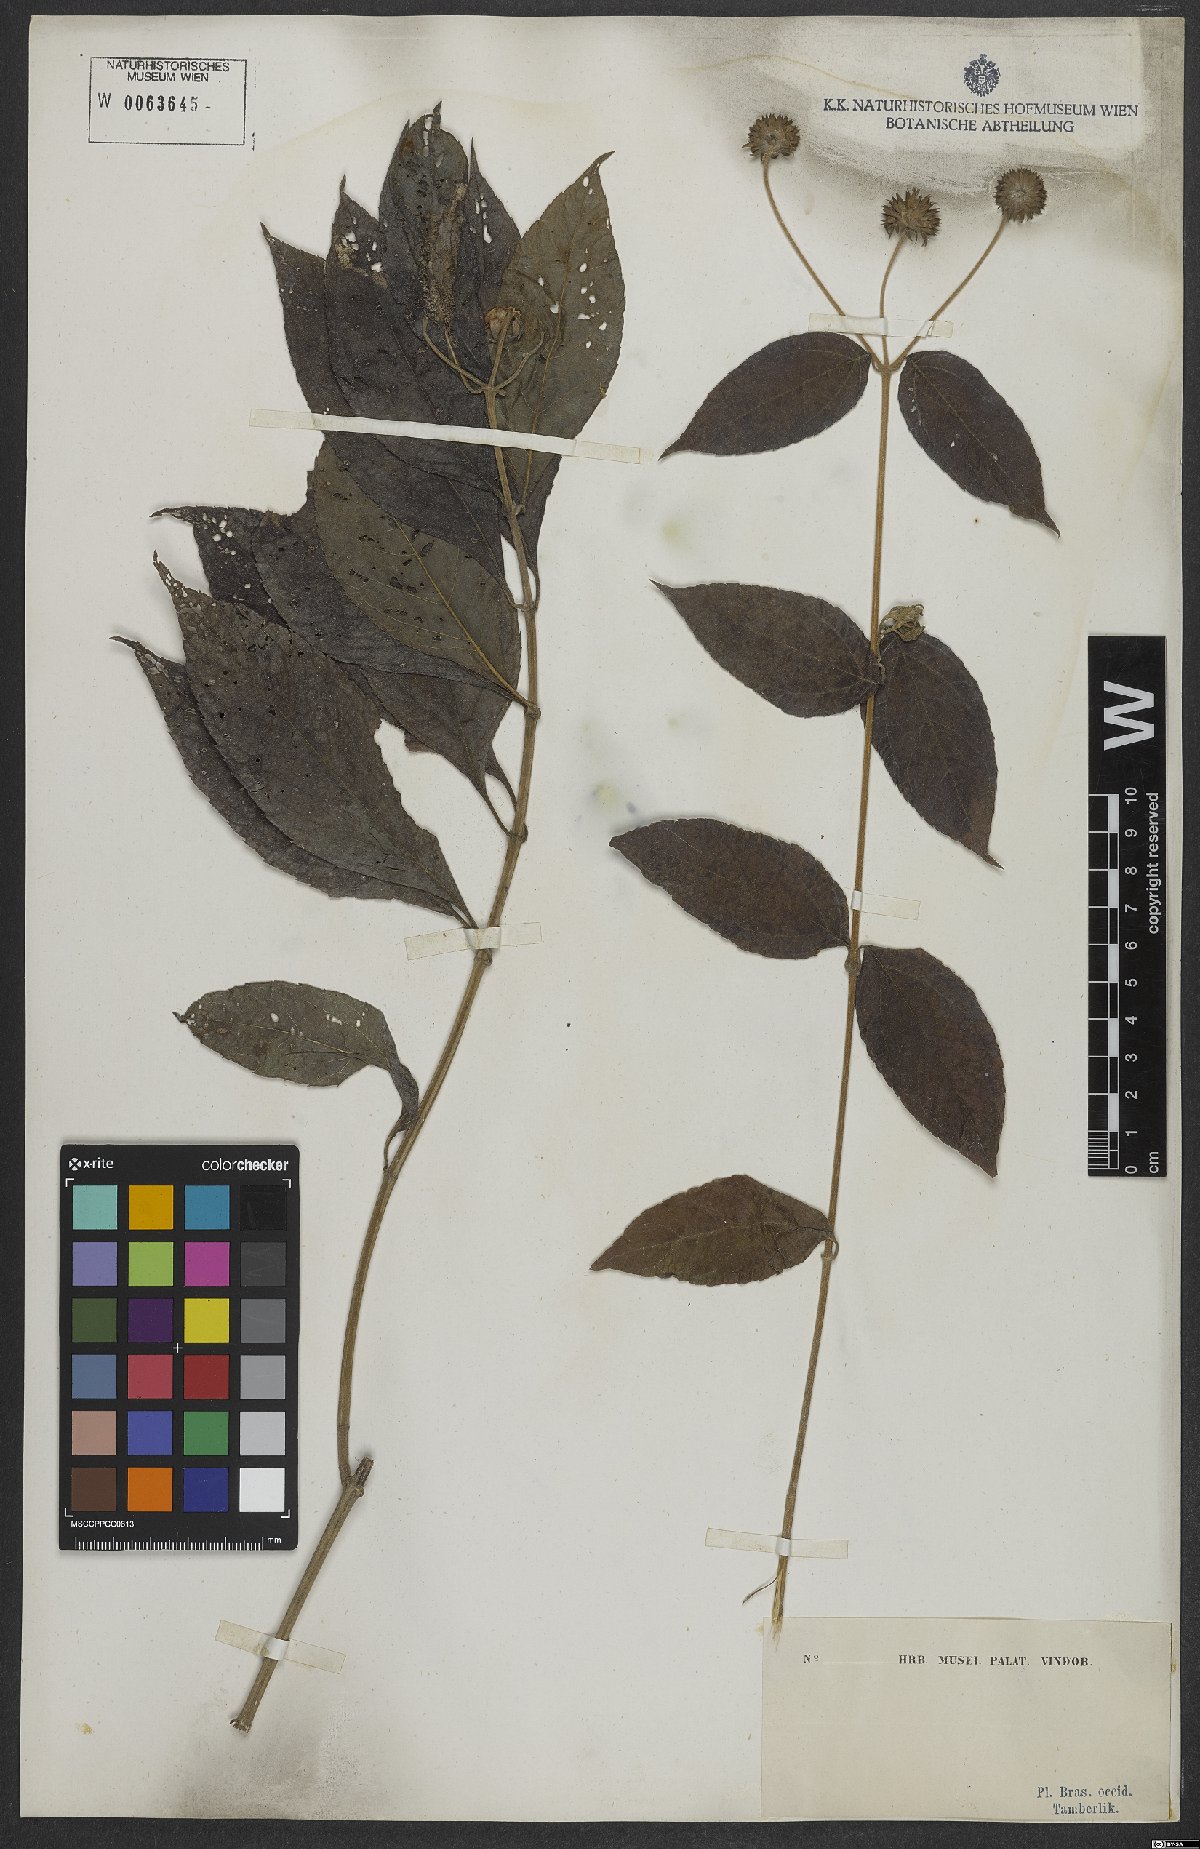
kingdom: Plantae
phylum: Tracheophyta
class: Magnoliopsida
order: Asterales
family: Asteraceae
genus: Melanthera
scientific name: Melanthera
